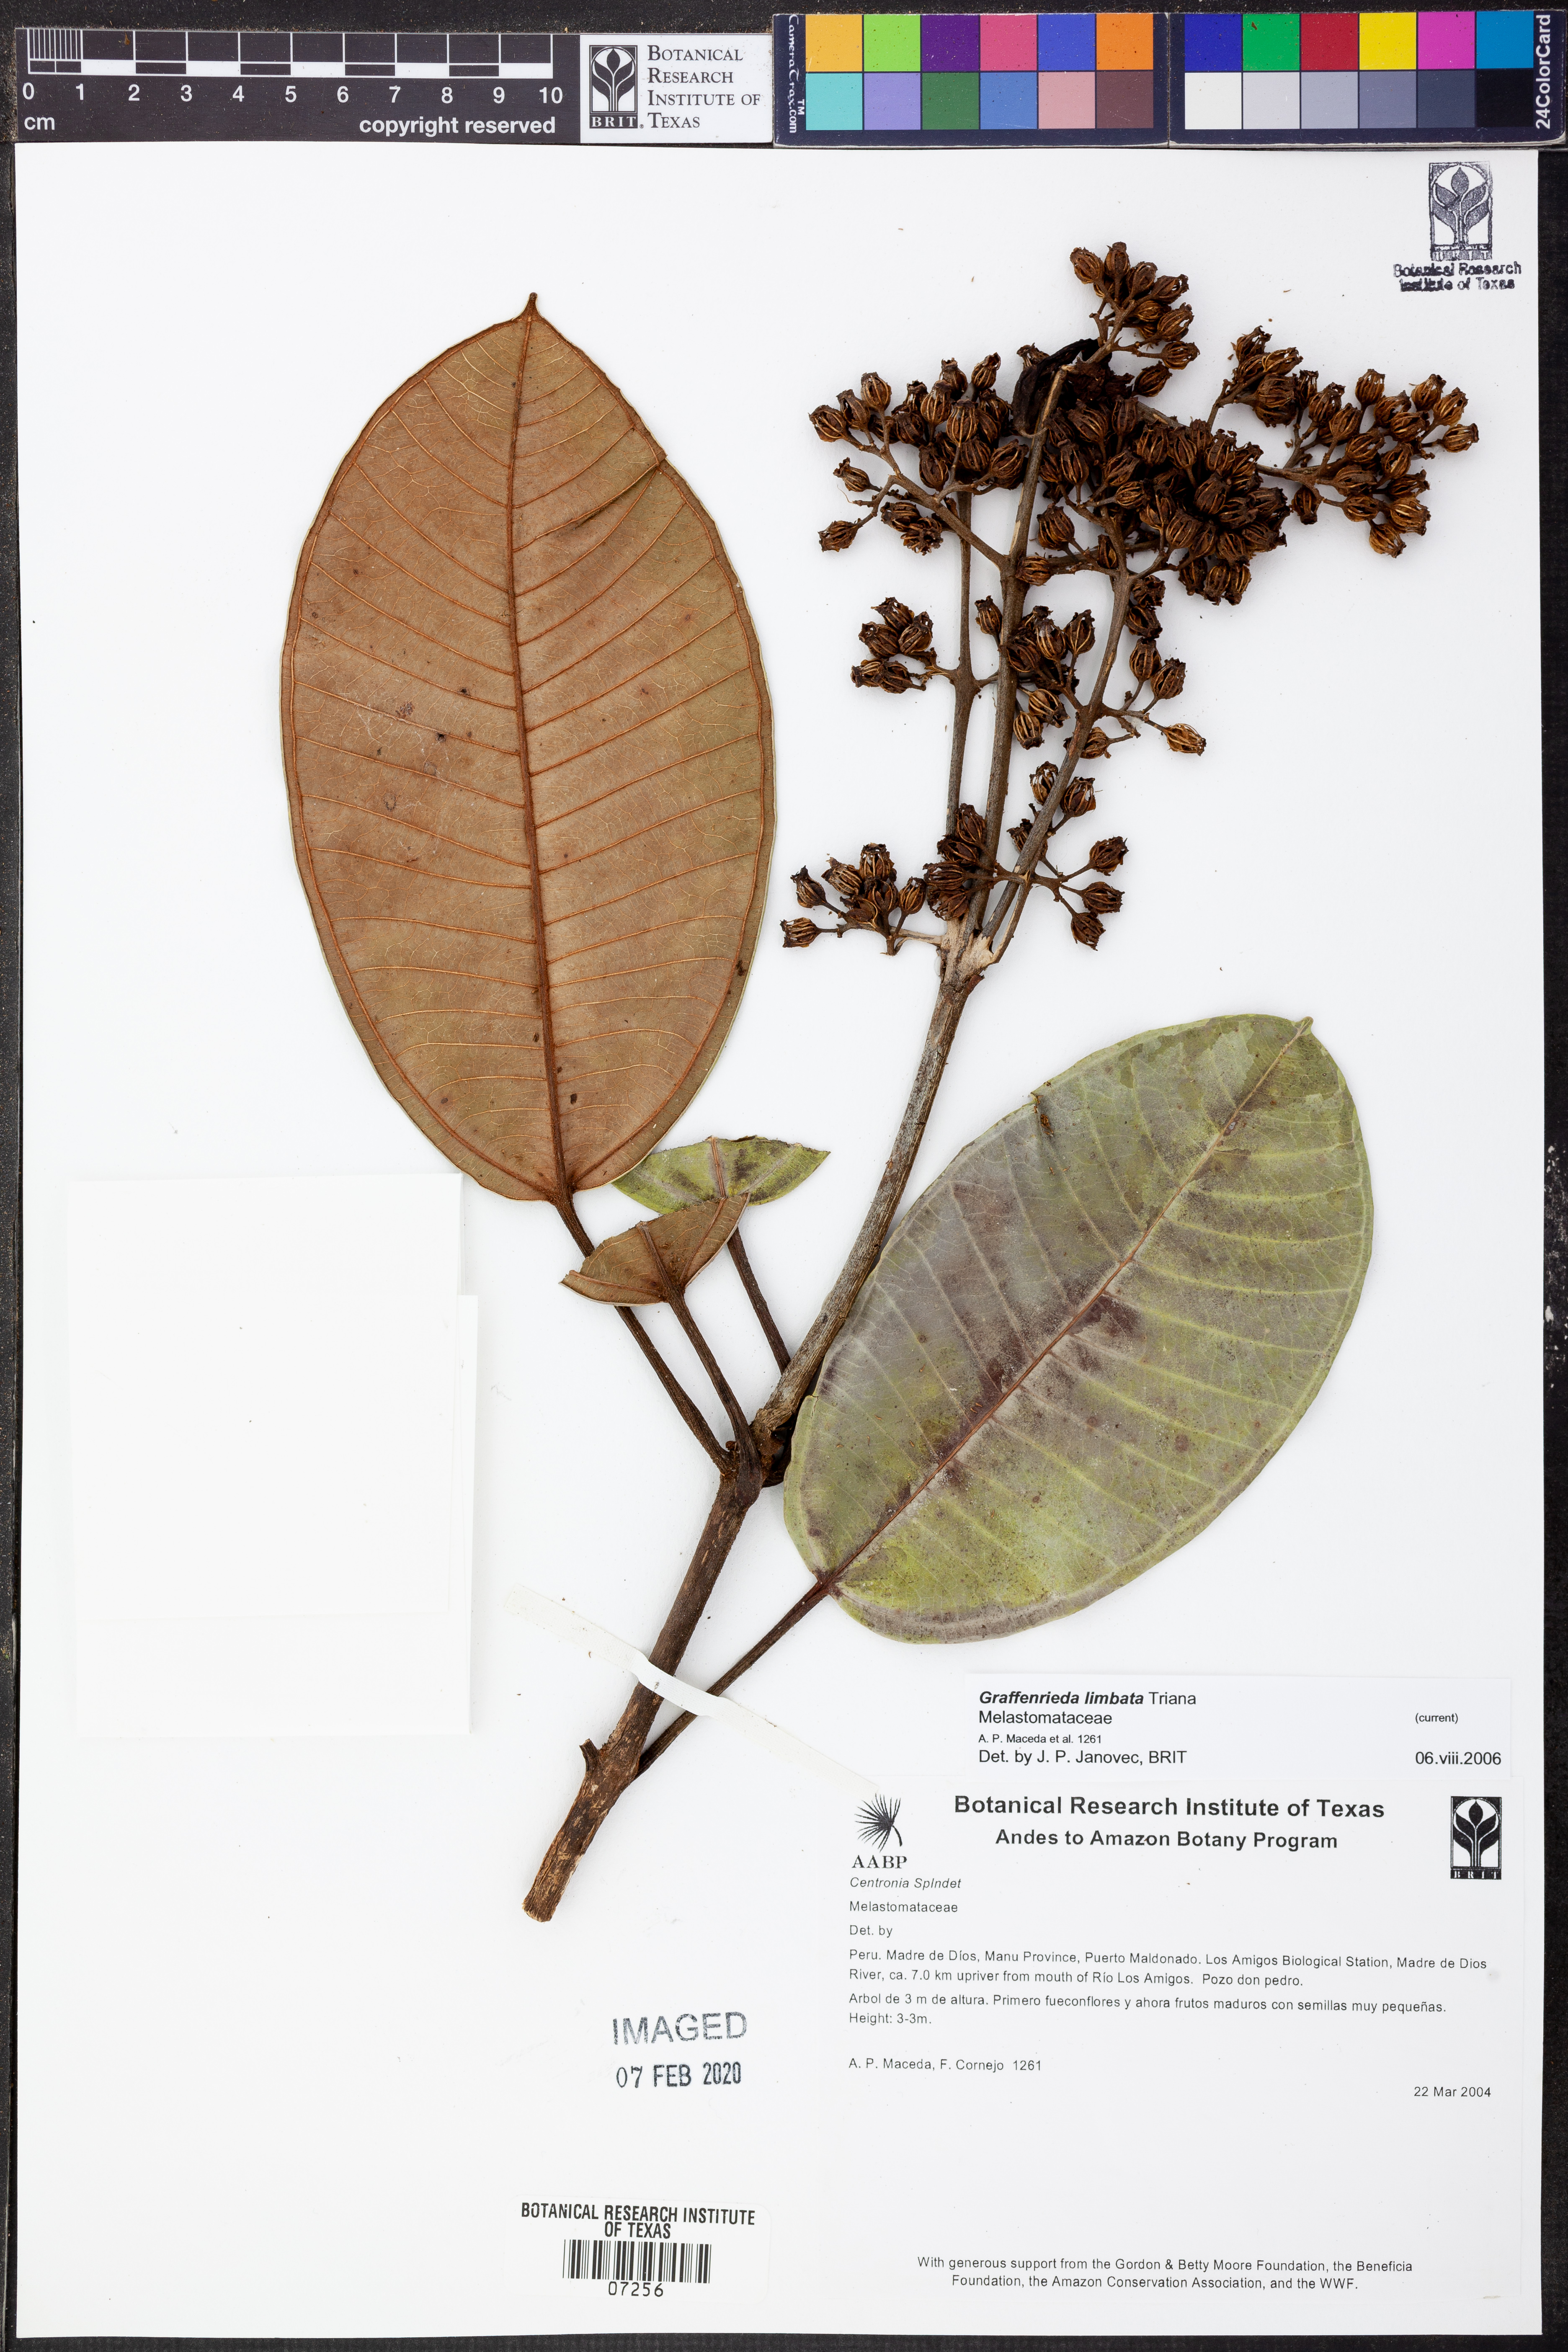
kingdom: Plantae
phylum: Tracheophyta
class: Magnoliopsida
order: Myrtales
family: Melastomataceae
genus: Graffenrieda
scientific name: Graffenrieda limbata
